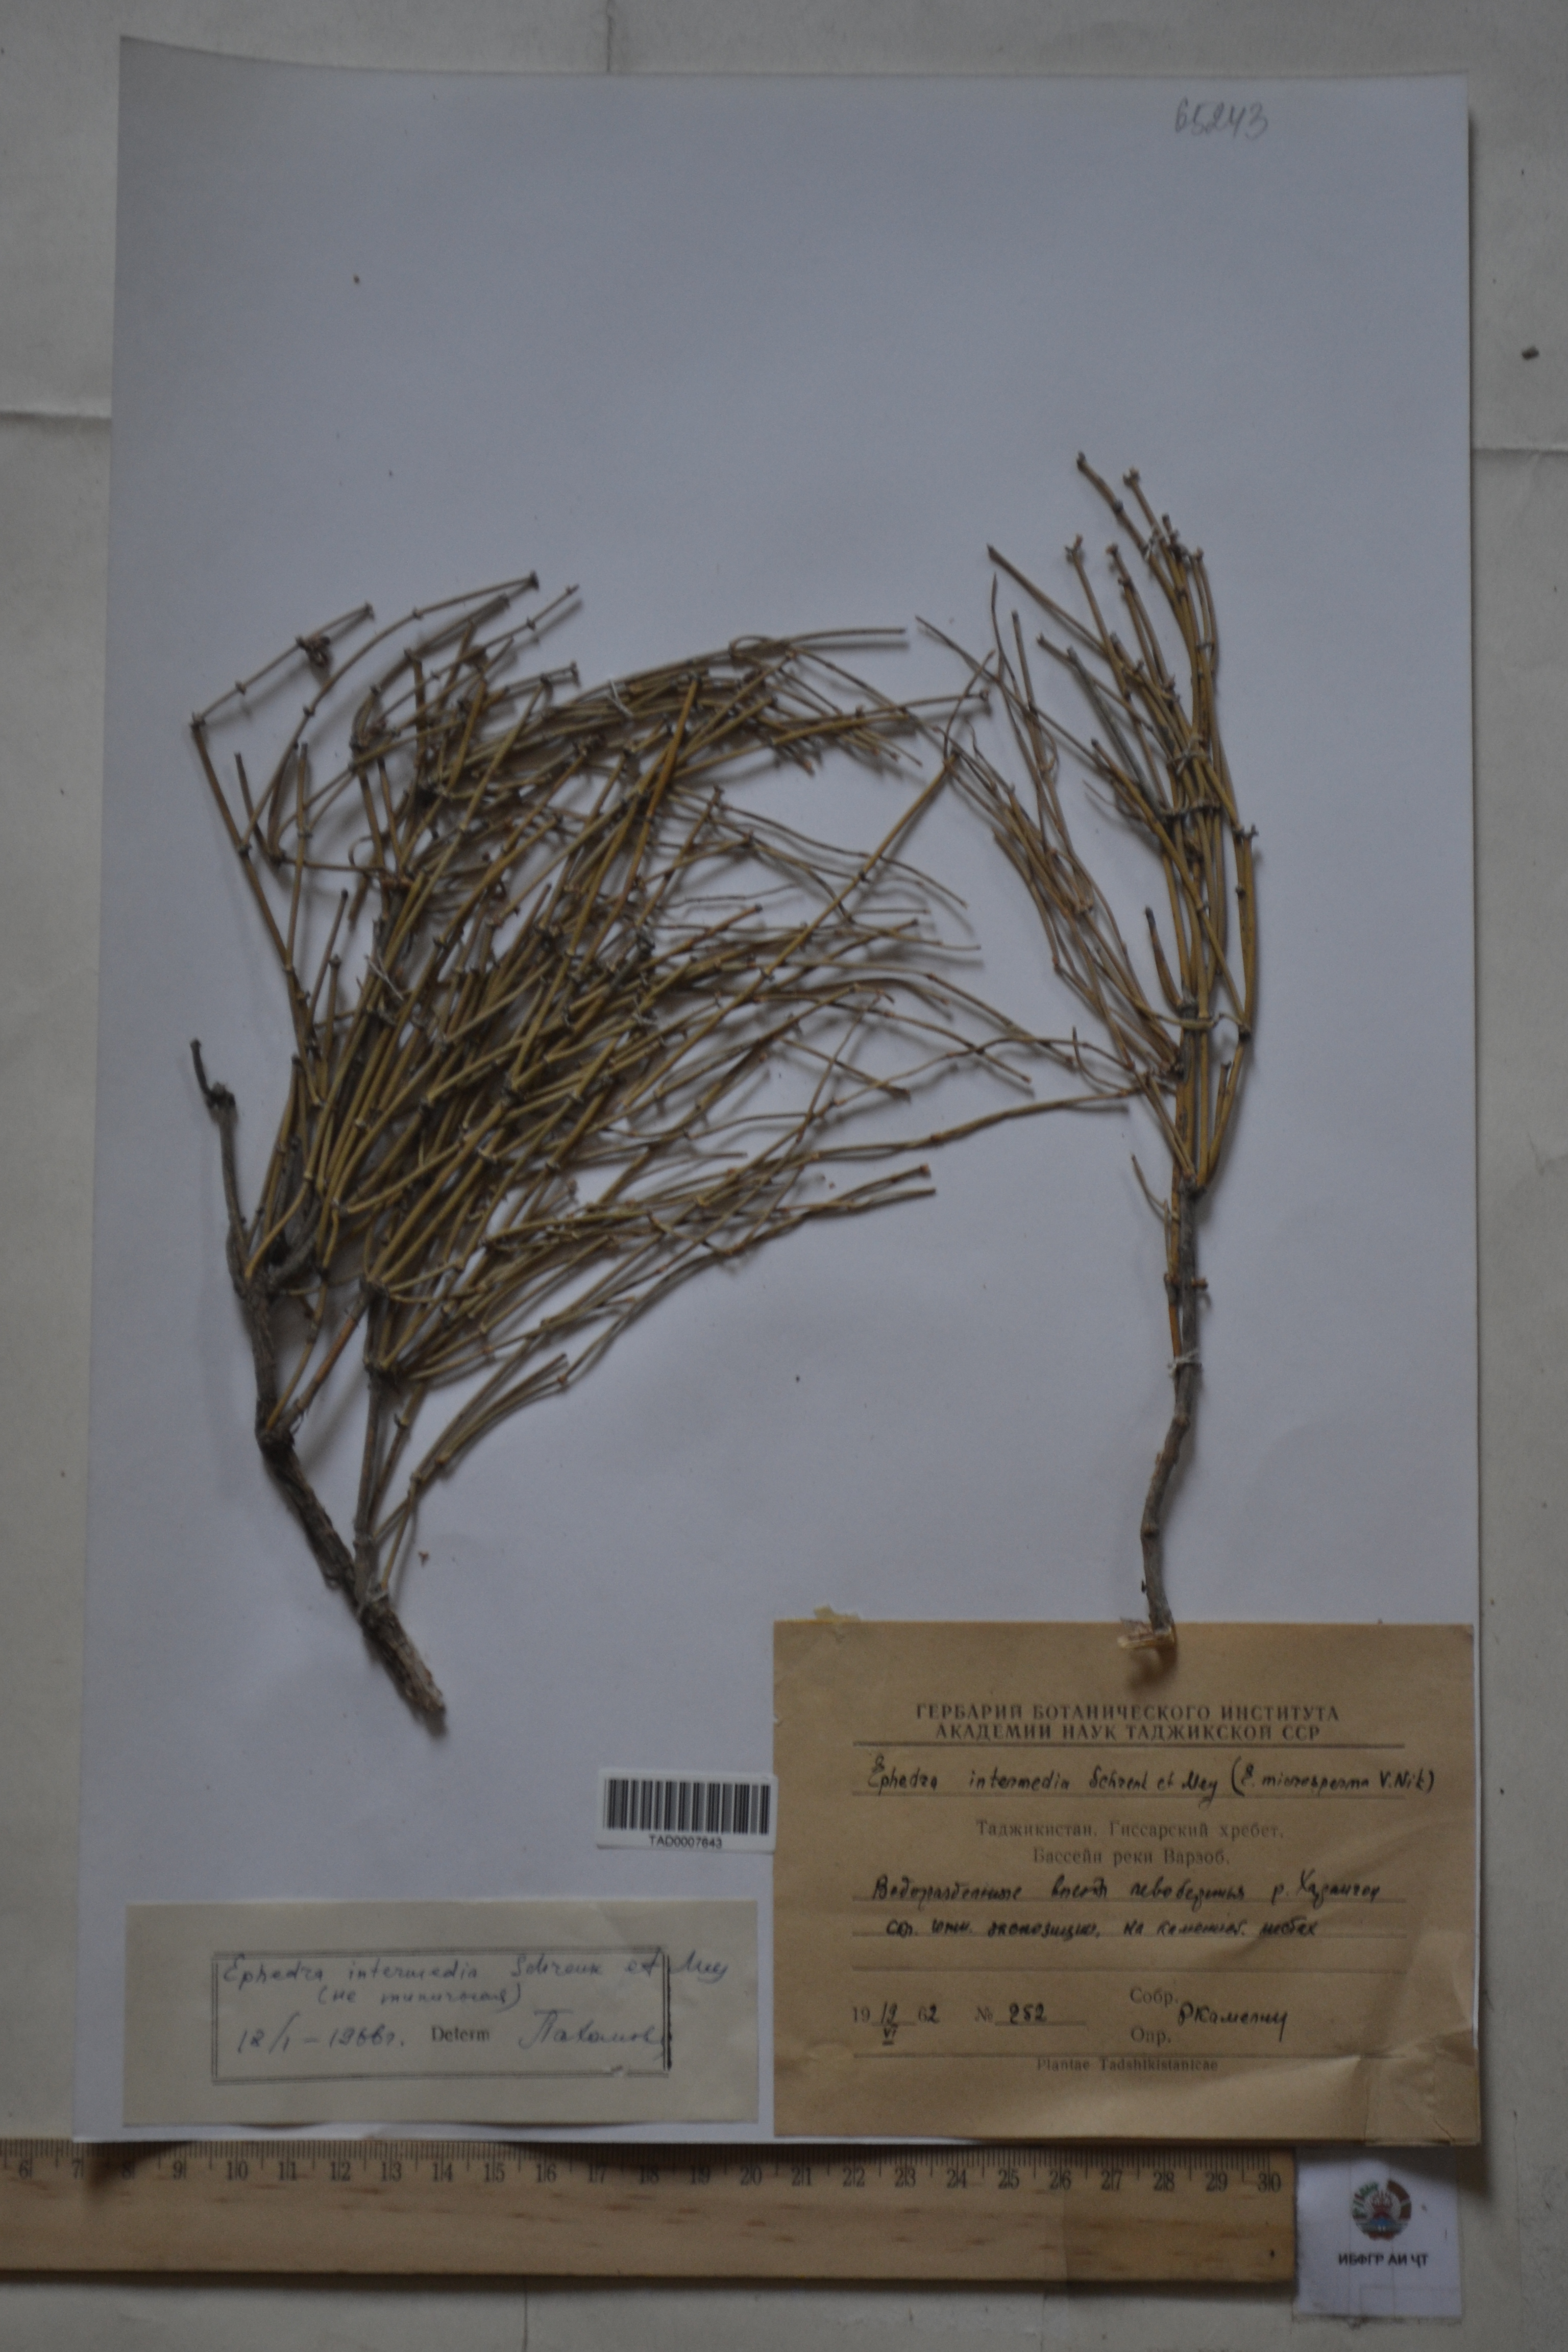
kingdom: Plantae
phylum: Tracheophyta
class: Gnetopsida
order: Ephedrales
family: Ephedraceae
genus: Ephedra
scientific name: Ephedra intermedia
